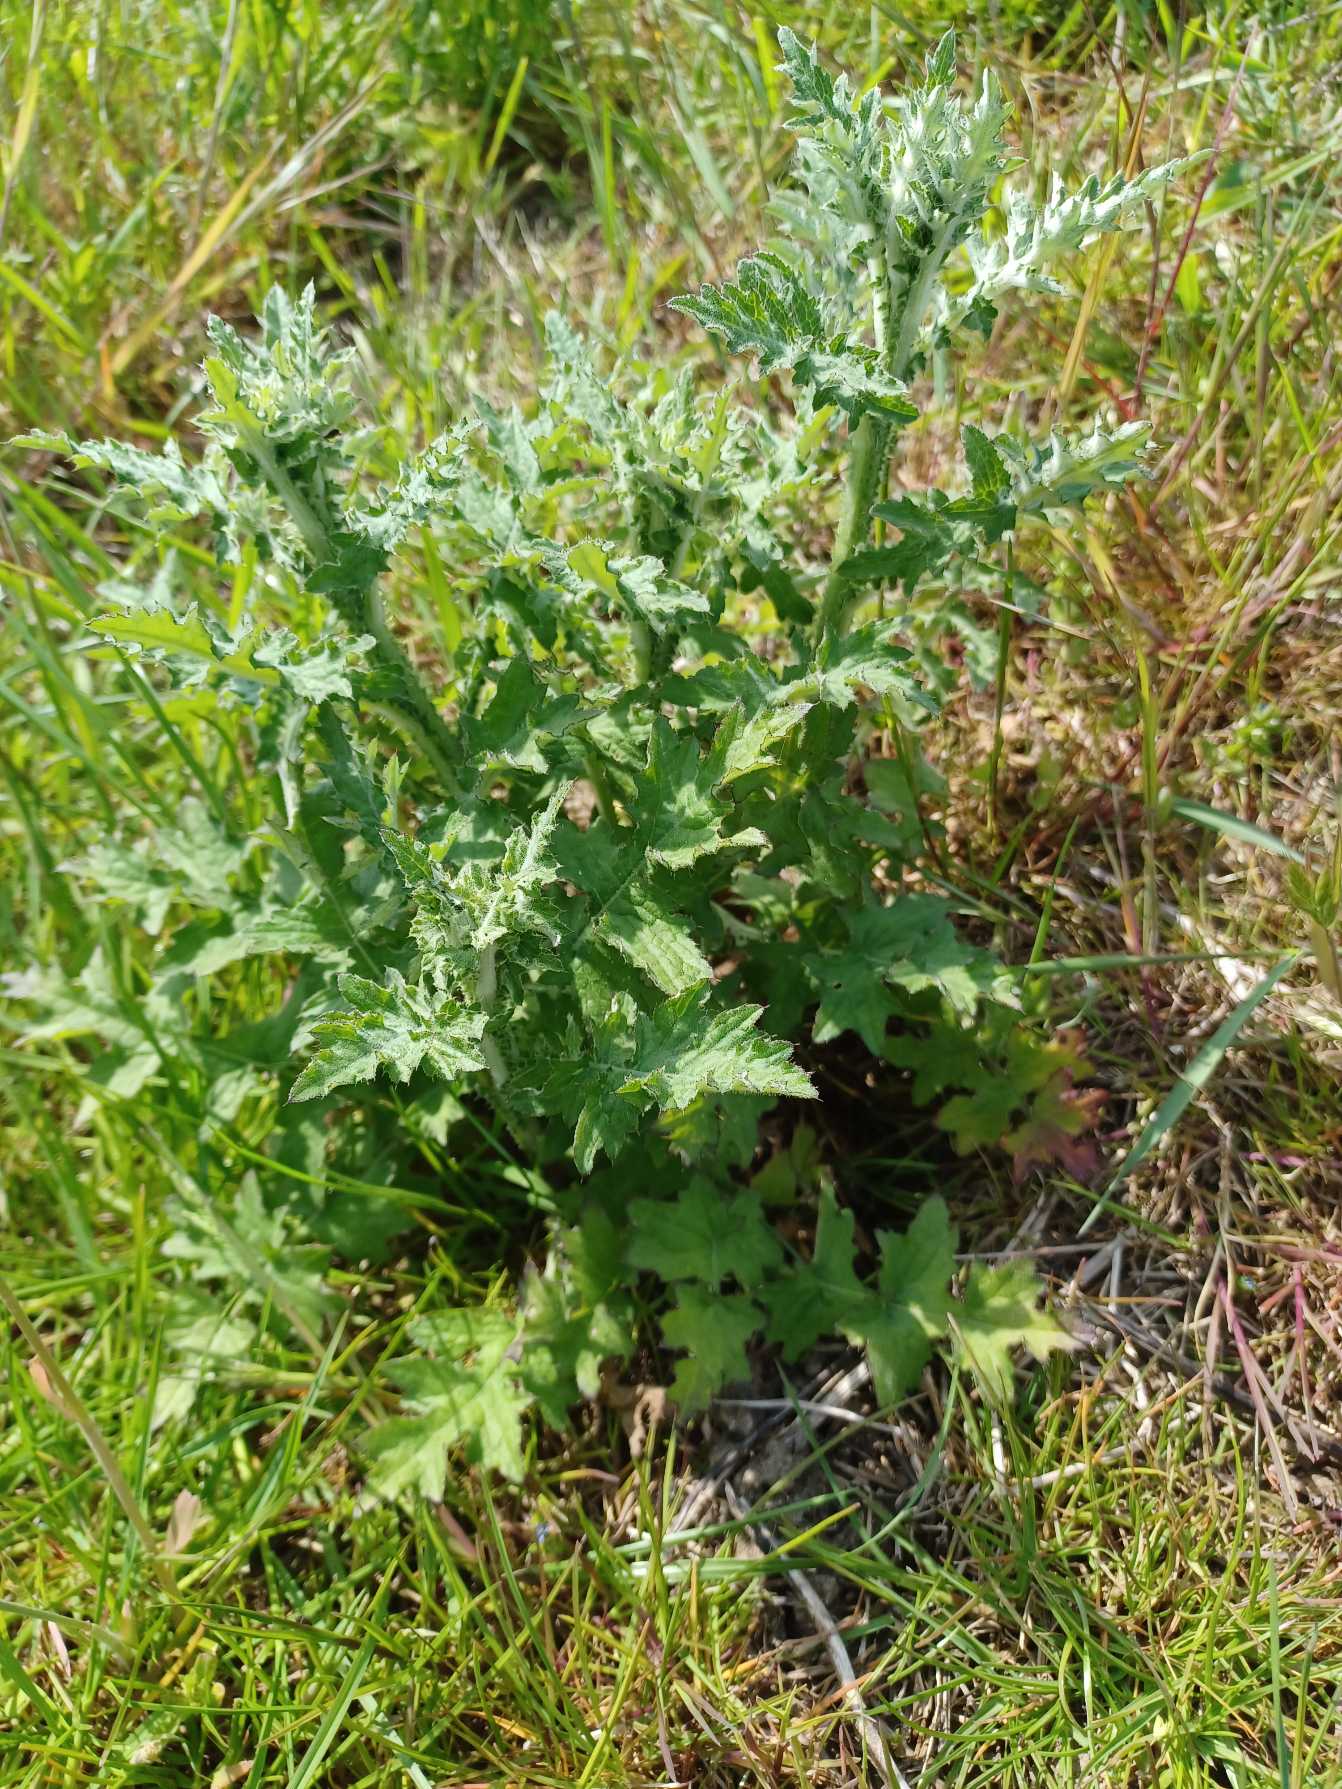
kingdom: Plantae
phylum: Tracheophyta
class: Magnoliopsida
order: Asterales
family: Asteraceae
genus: Carduus
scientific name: Carduus crispus
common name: Kruset tidsel
